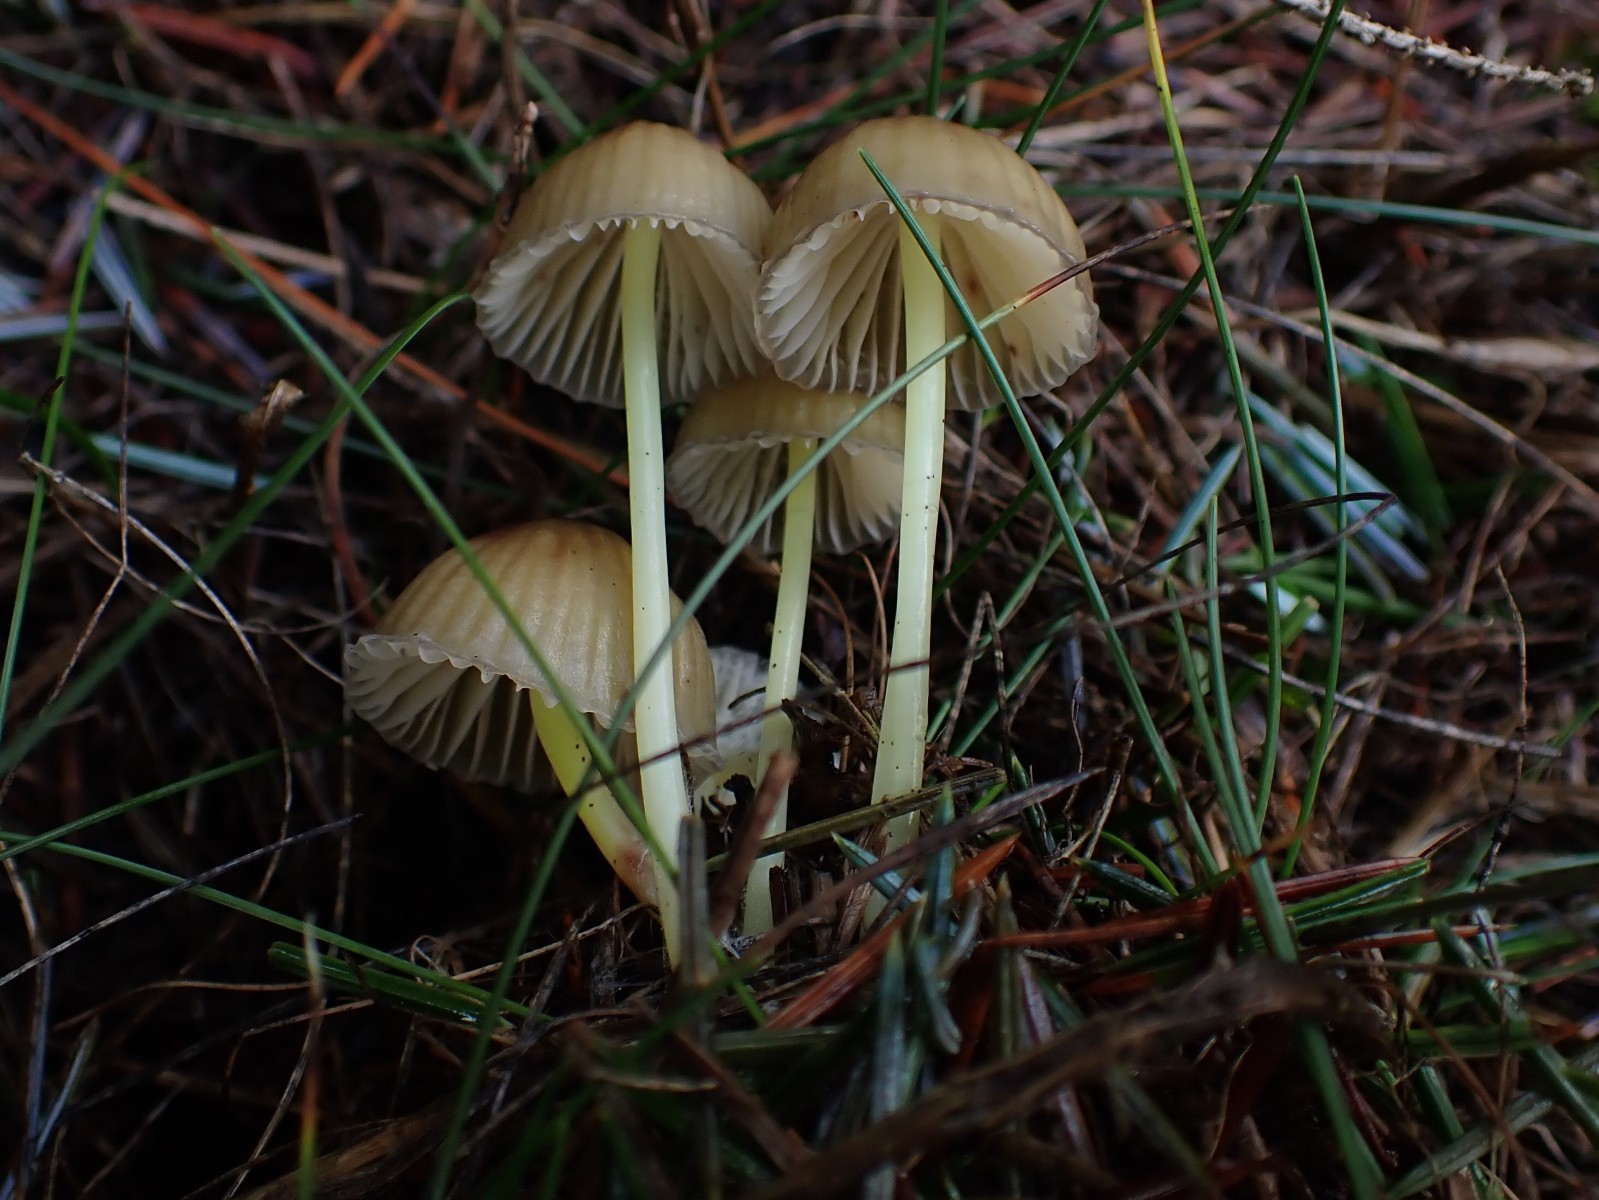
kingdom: Fungi
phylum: Basidiomycota
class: Agaricomycetes
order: Agaricales
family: Mycenaceae
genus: Mycena
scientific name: Mycena epipterygia
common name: gulstokket huesvamp
